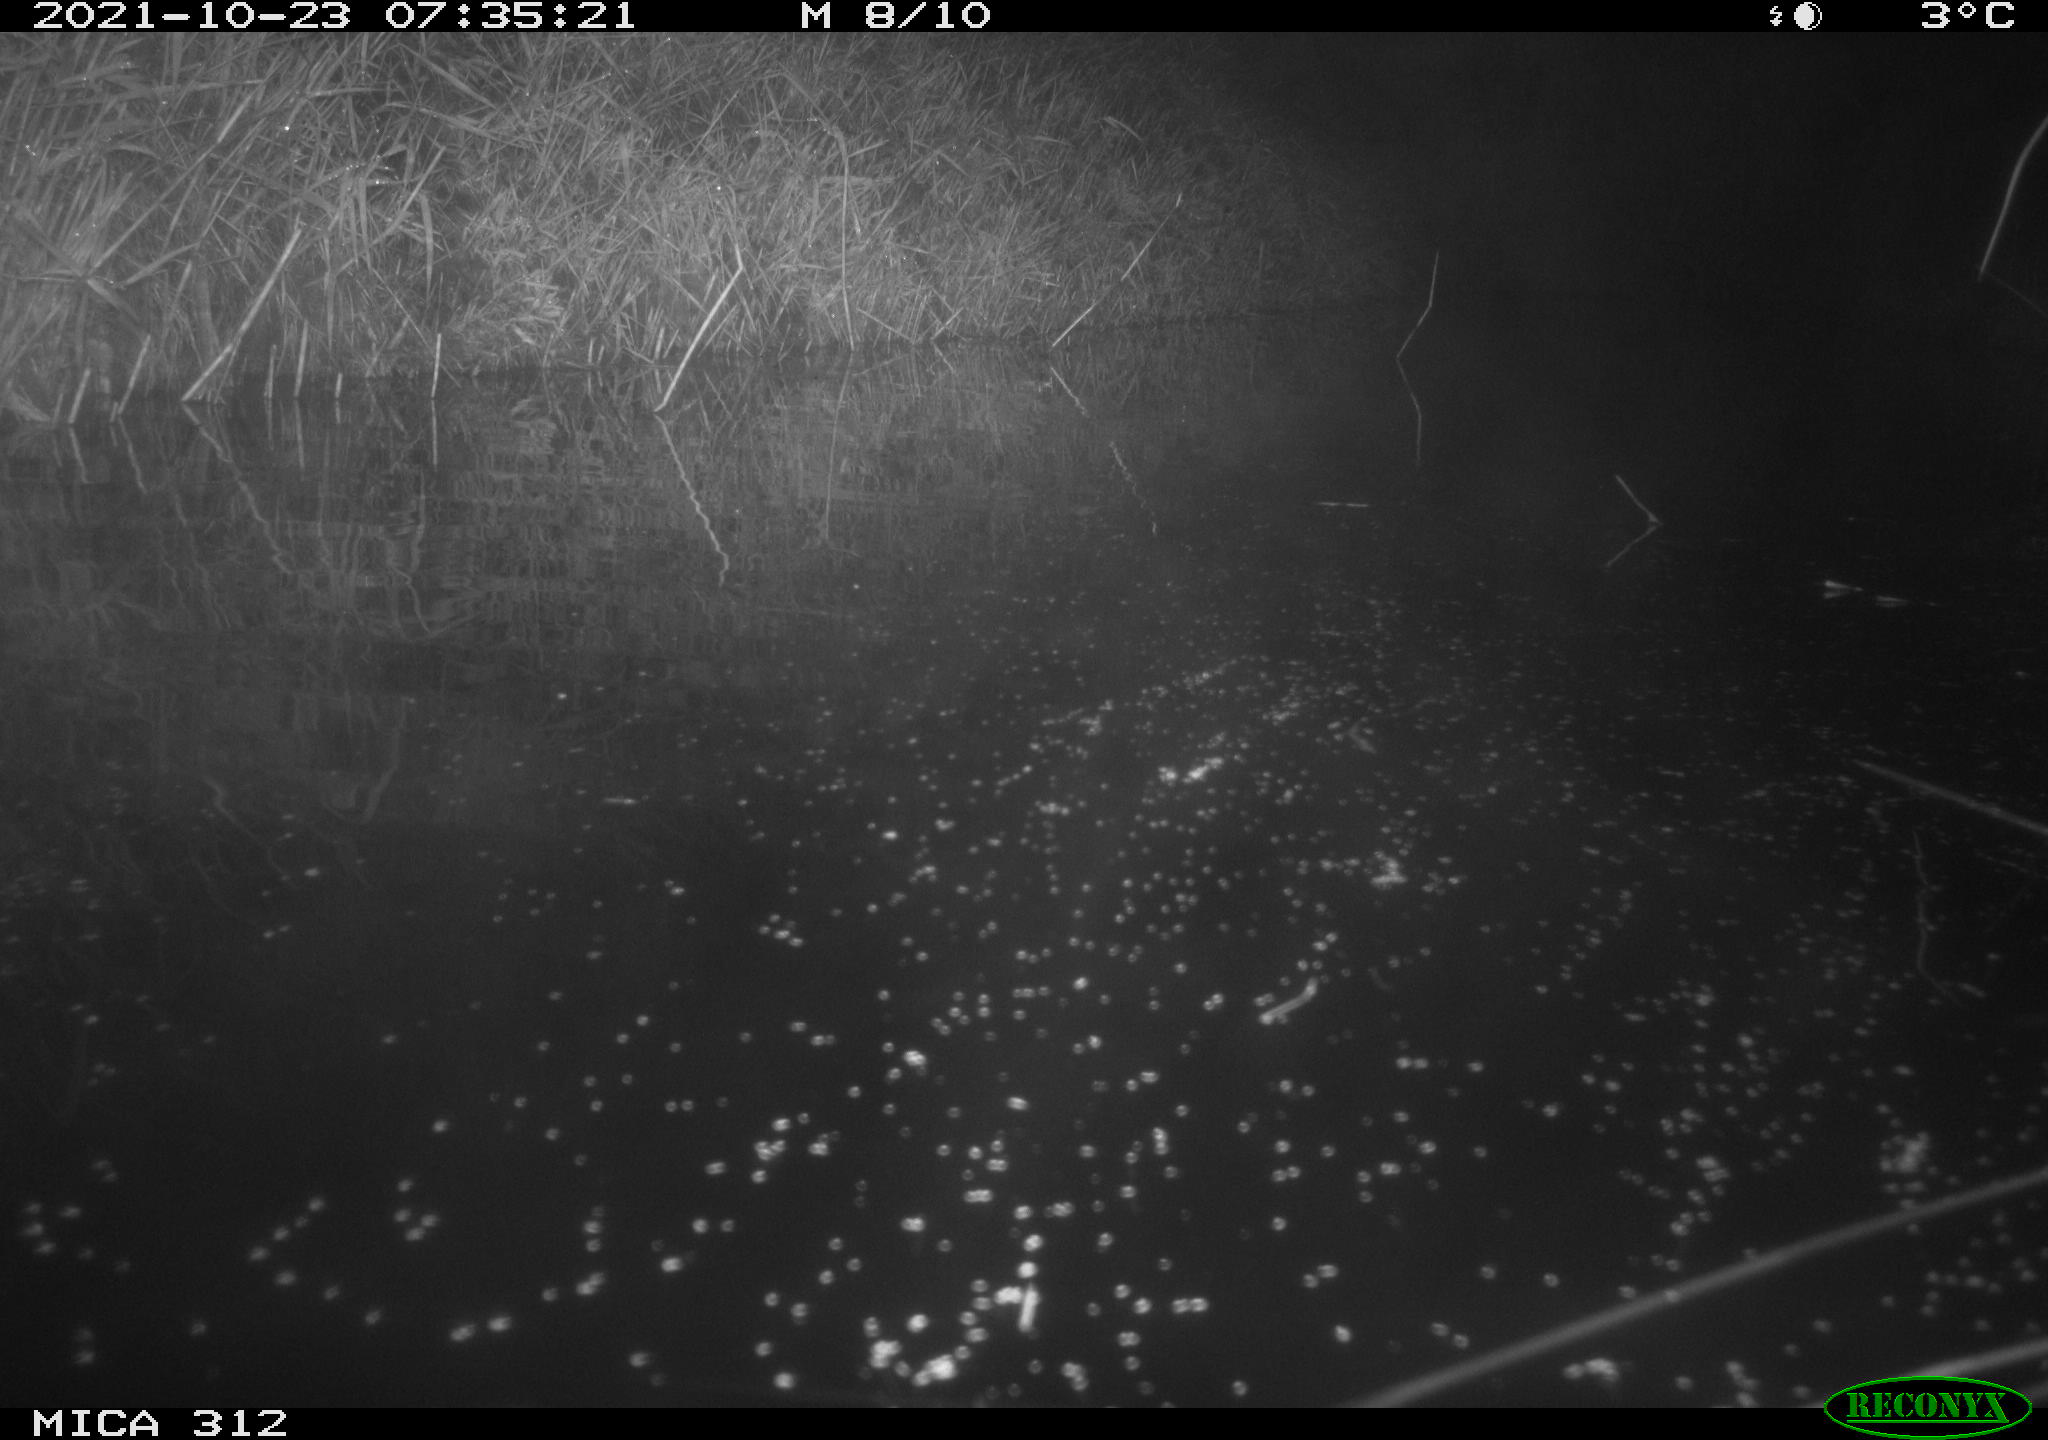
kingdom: Animalia
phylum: Chordata
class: Mammalia
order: Rodentia
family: Muridae
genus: Rattus
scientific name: Rattus norvegicus
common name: Brown rat
